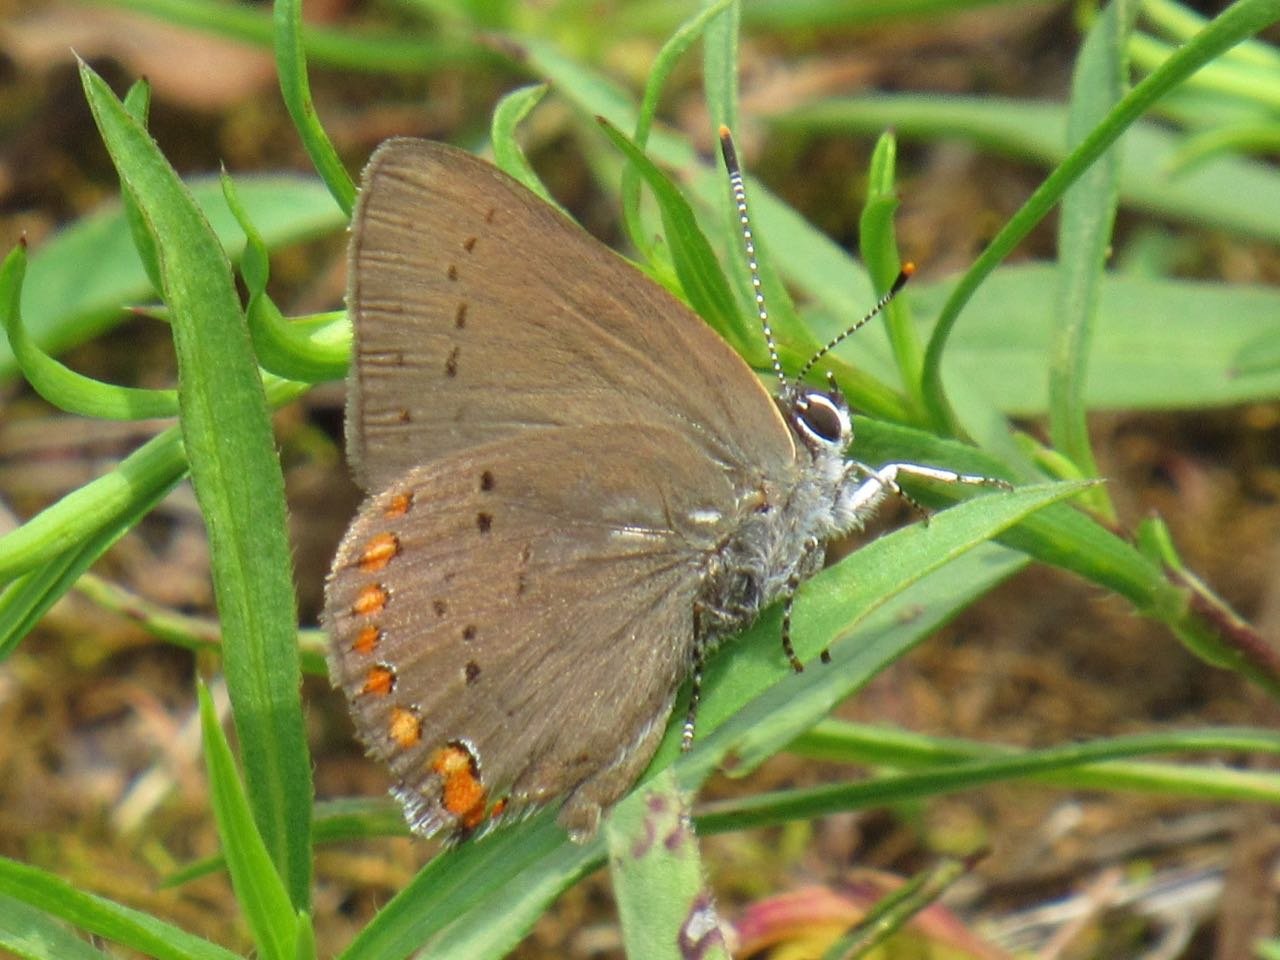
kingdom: Animalia
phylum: Arthropoda
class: Insecta
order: Lepidoptera
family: Lycaenidae
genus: Harkenclenus
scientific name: Harkenclenus titus
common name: Coral Hairstreak
